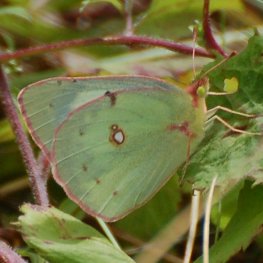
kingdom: Animalia
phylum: Arthropoda
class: Insecta
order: Lepidoptera
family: Pieridae
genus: Colias
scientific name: Colias philodice
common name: Clouded Sulphur
